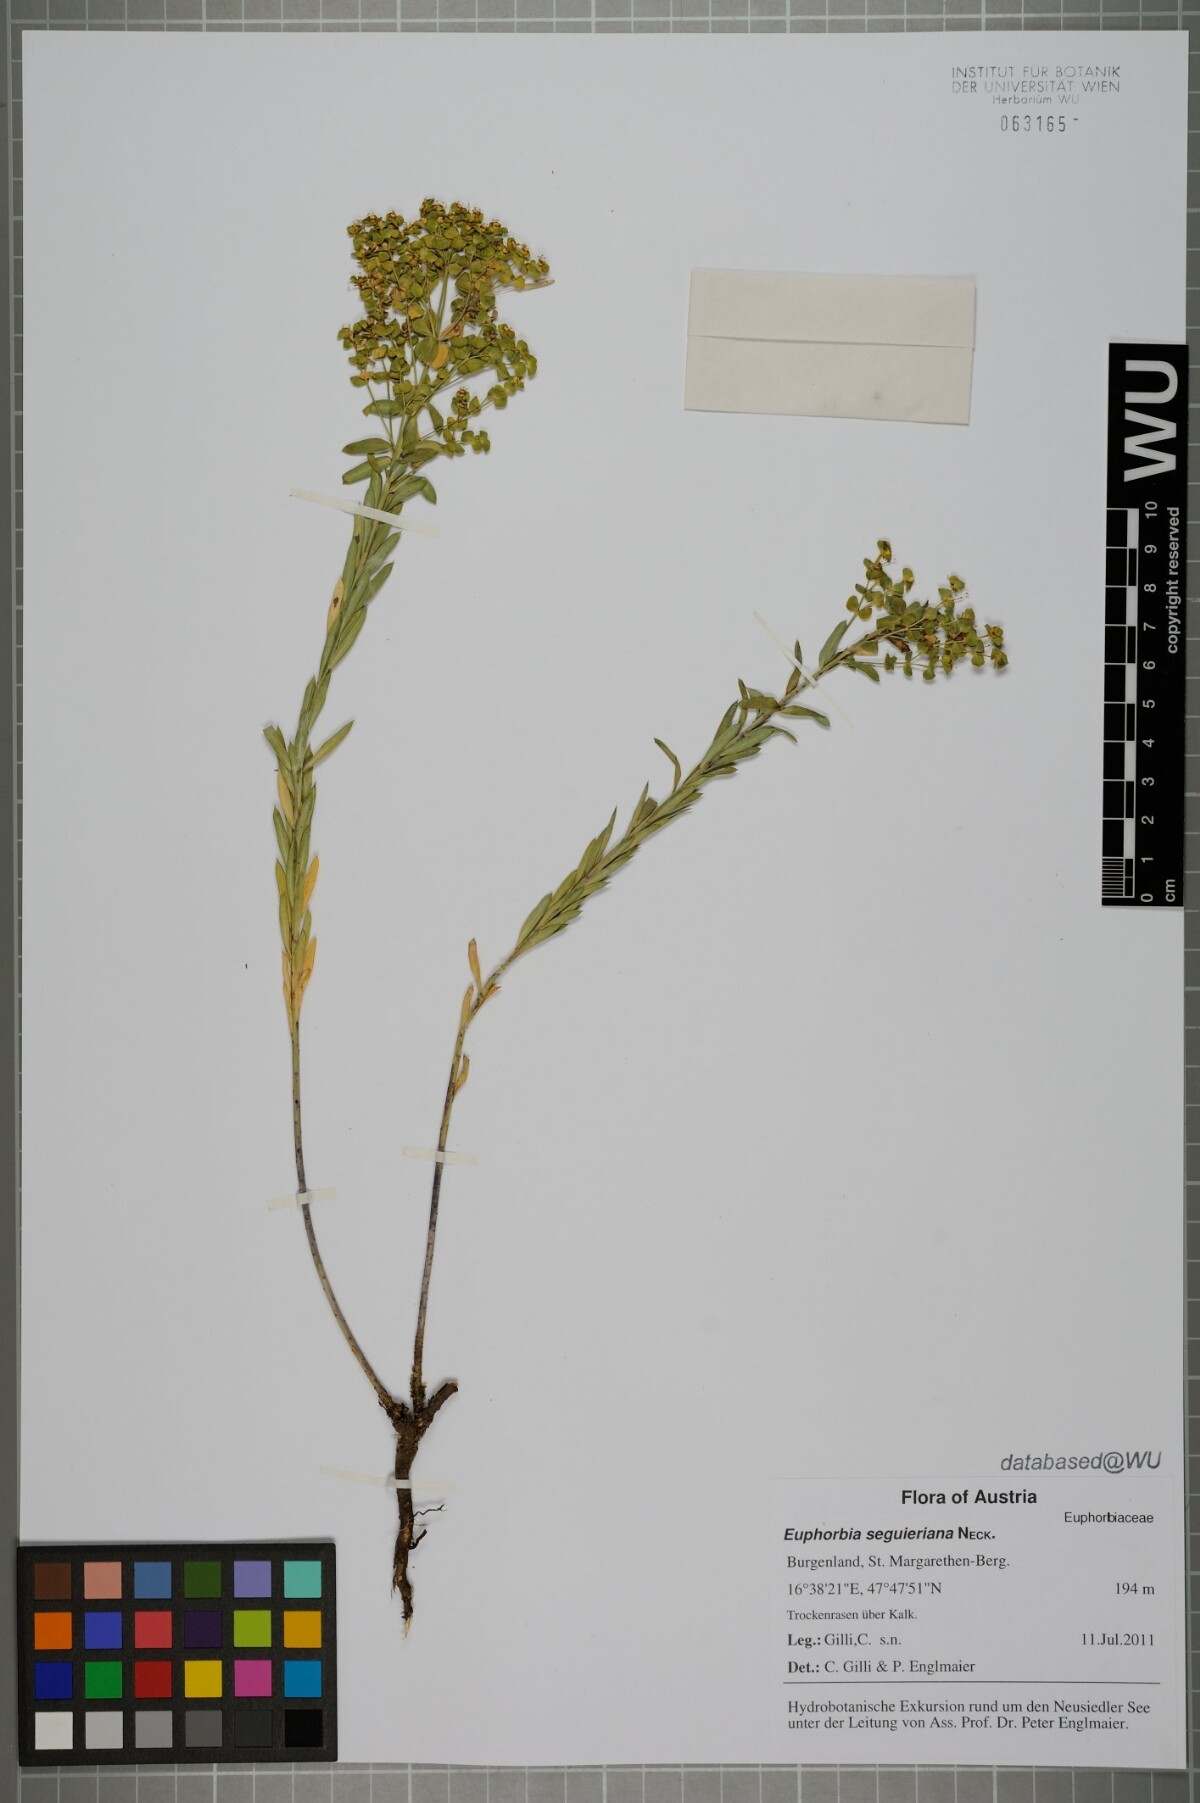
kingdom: Plantae
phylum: Tracheophyta
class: Magnoliopsida
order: Malpighiales
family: Euphorbiaceae
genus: Euphorbia
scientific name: Euphorbia seguieriana
